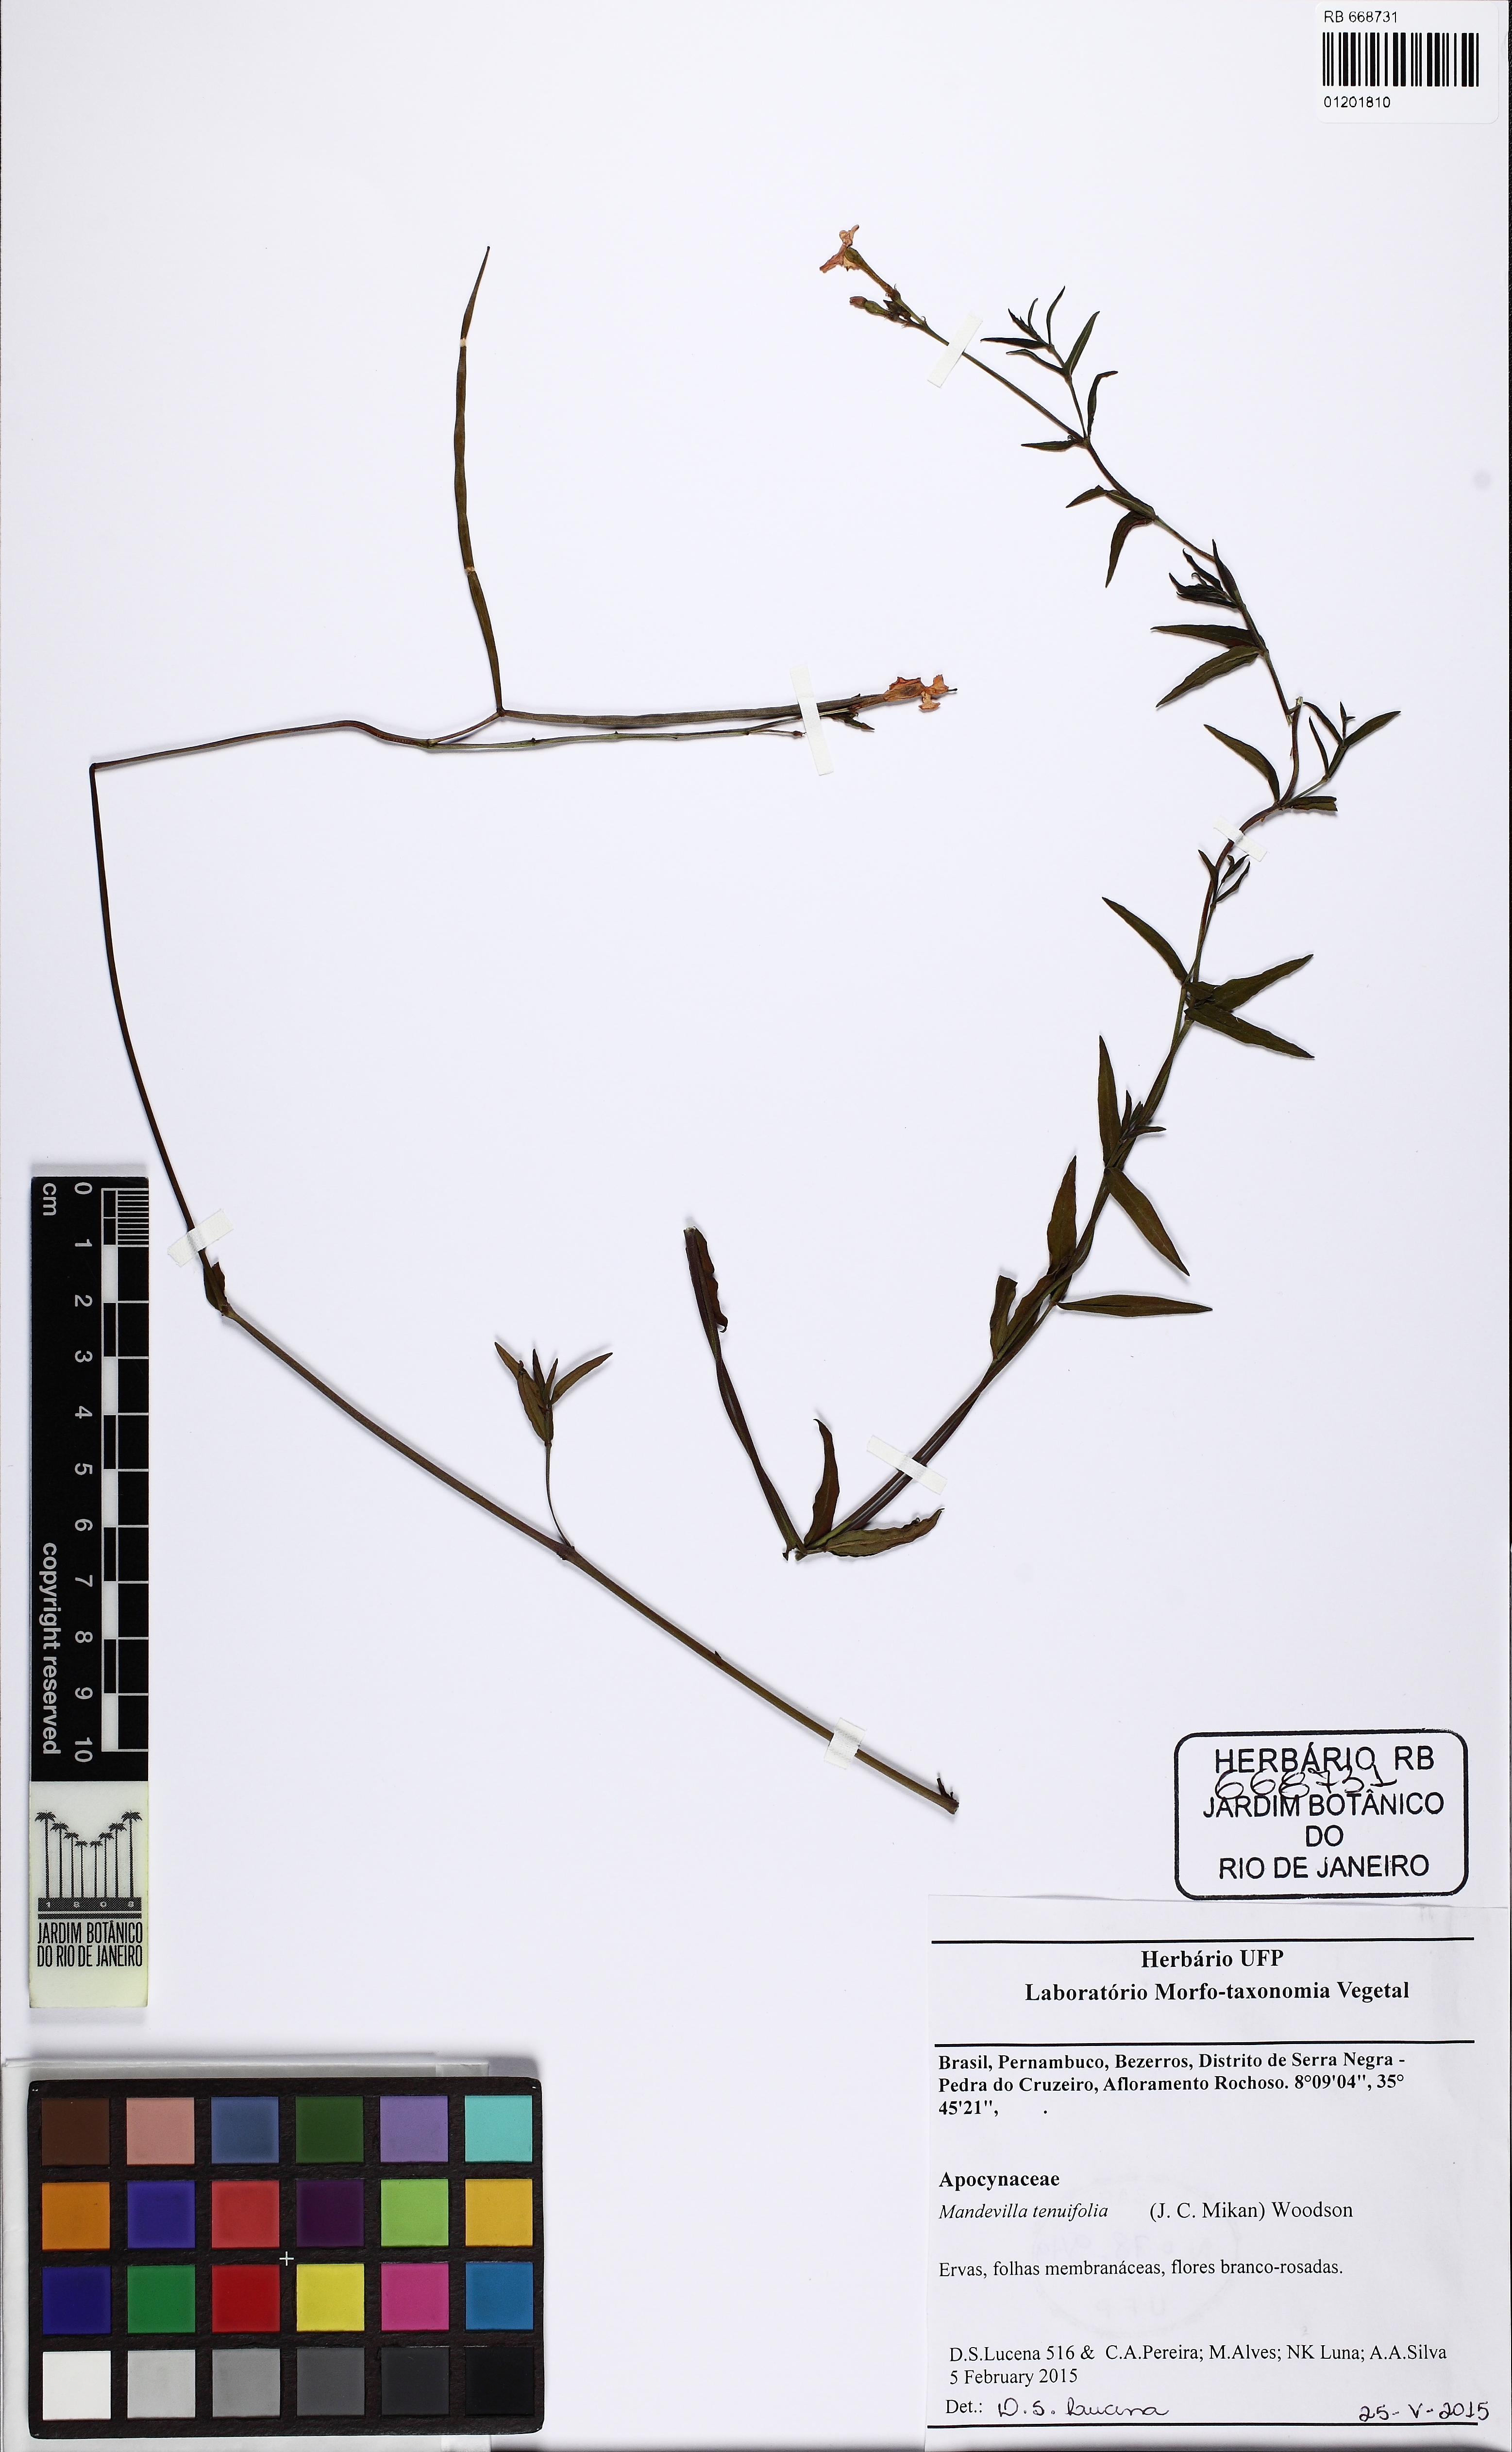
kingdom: Plantae
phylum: Tracheophyta
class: Magnoliopsida
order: Gentianales
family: Apocynaceae
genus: Mandevilla
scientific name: Mandevilla tenuifolia
